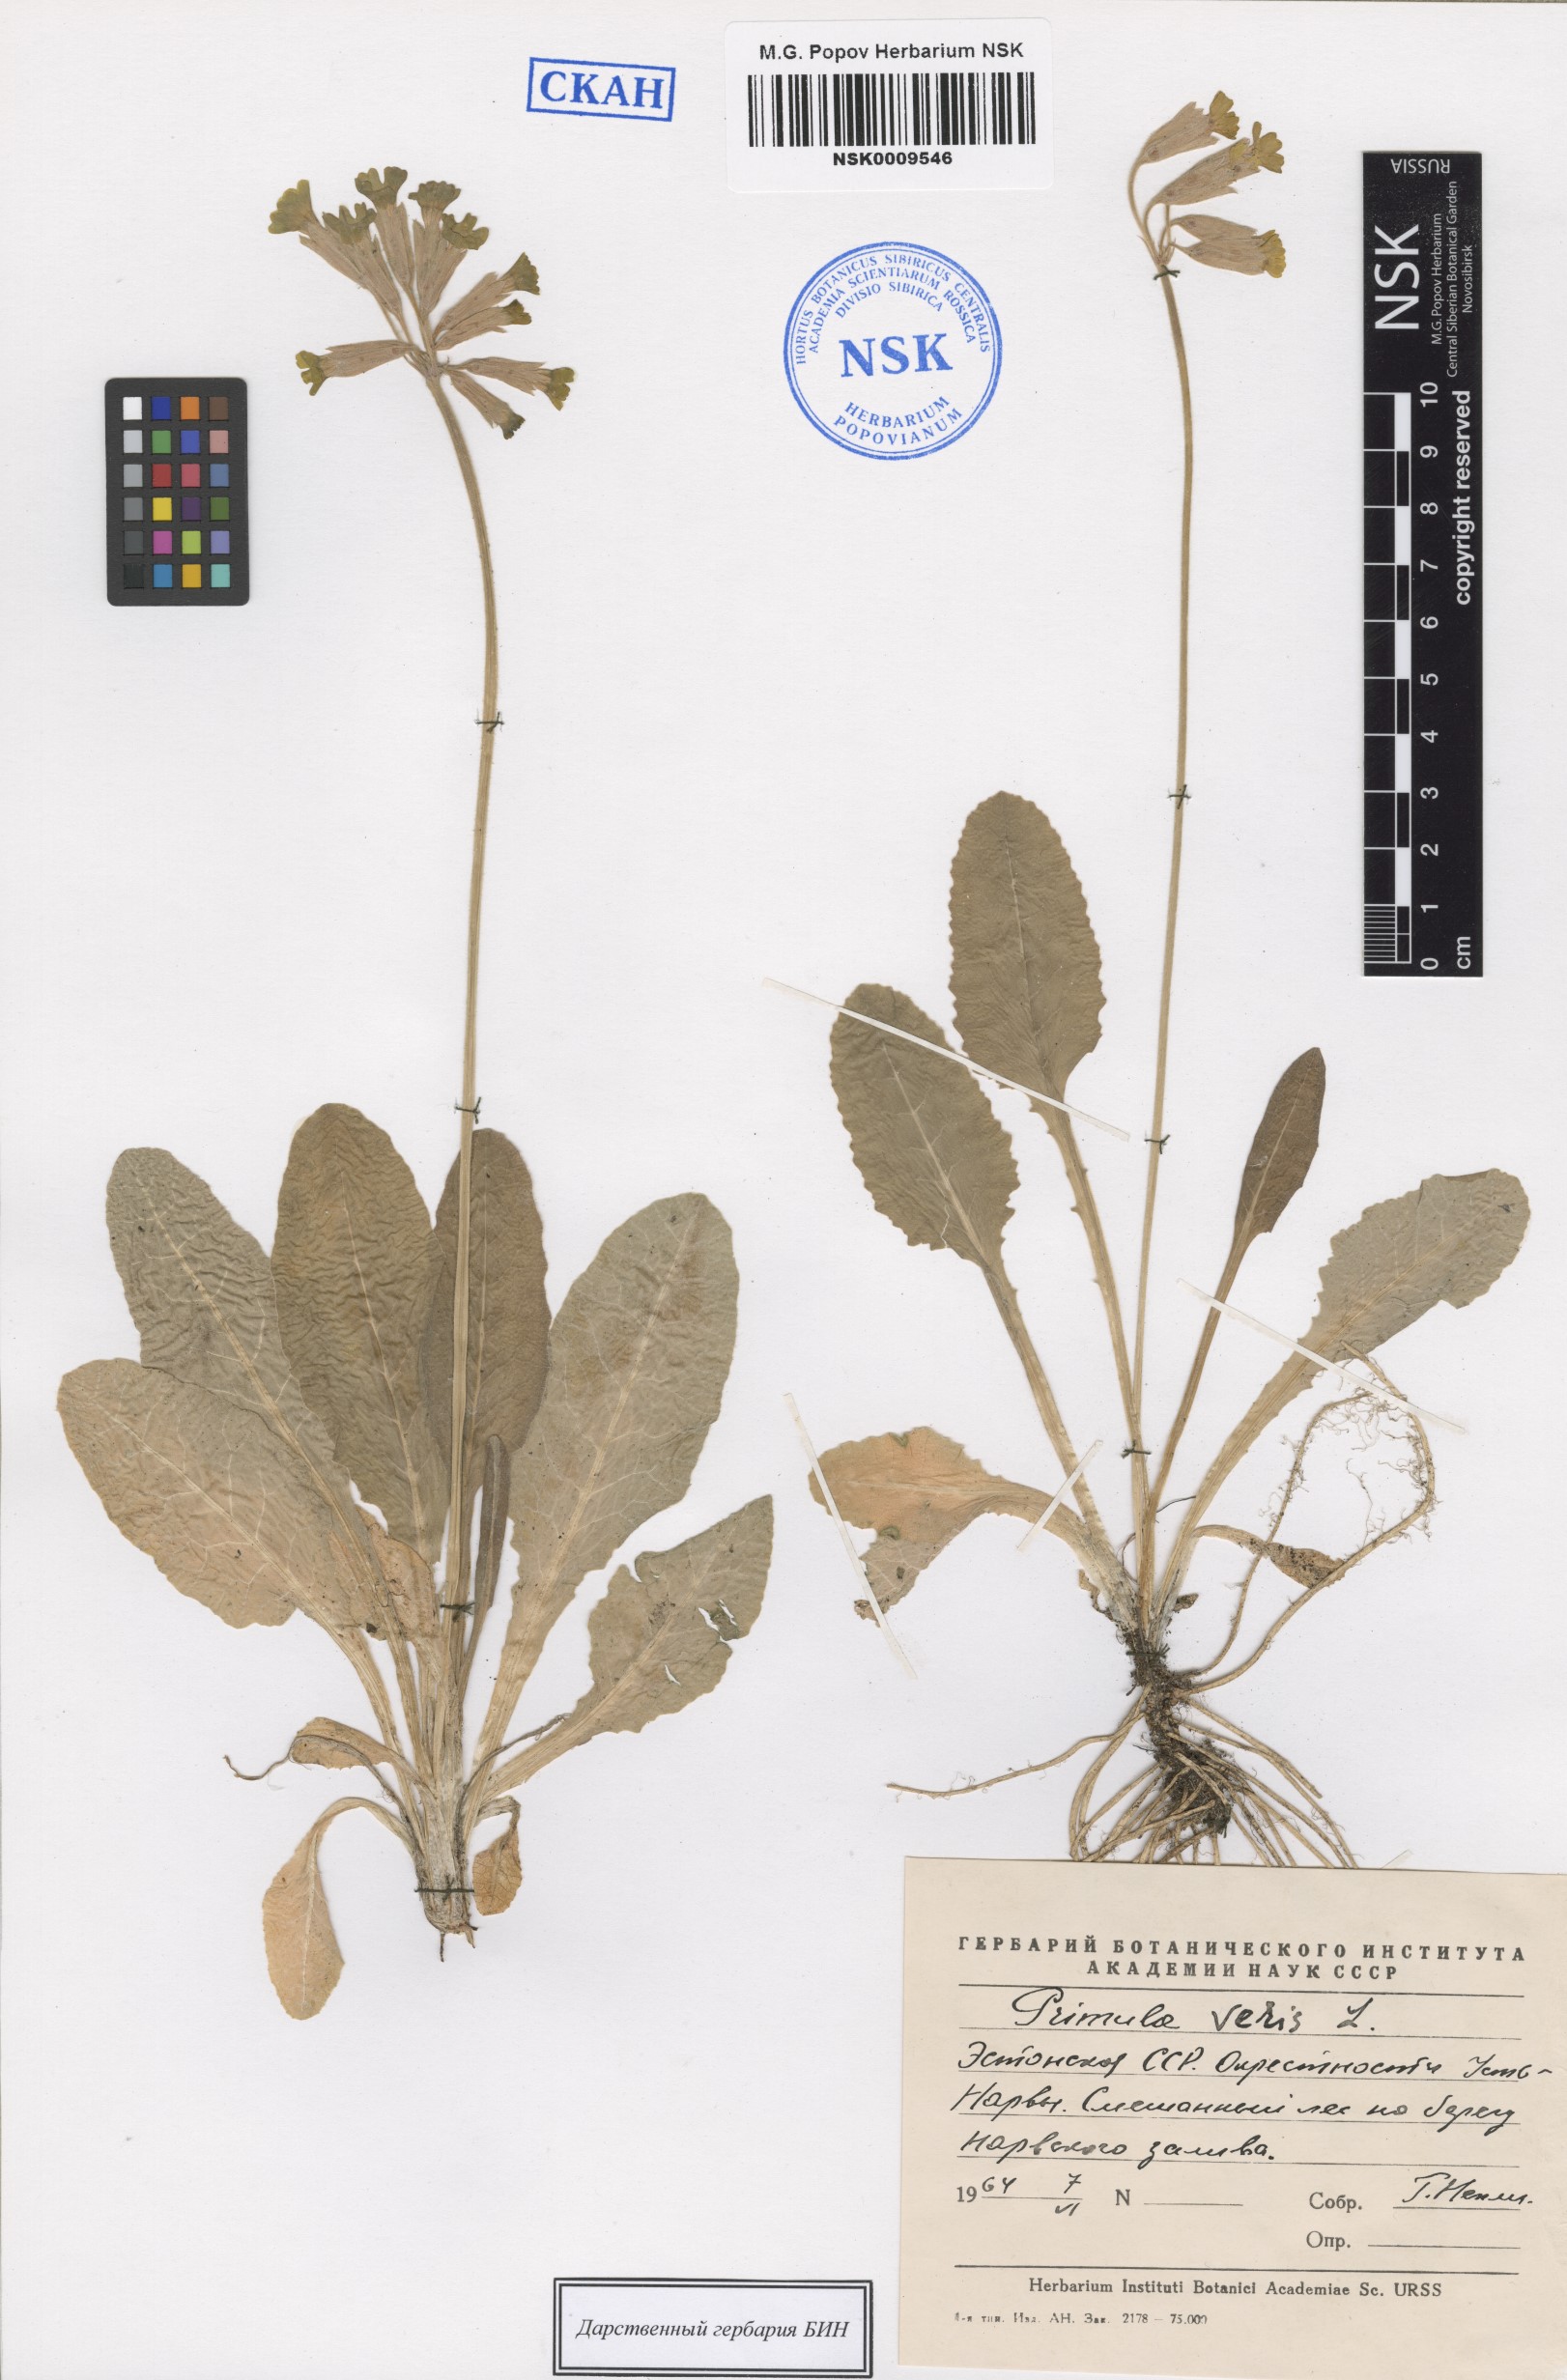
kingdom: Plantae
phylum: Tracheophyta
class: Magnoliopsida
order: Ericales
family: Primulaceae
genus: Primula
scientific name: Primula veris
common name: Cowslip
